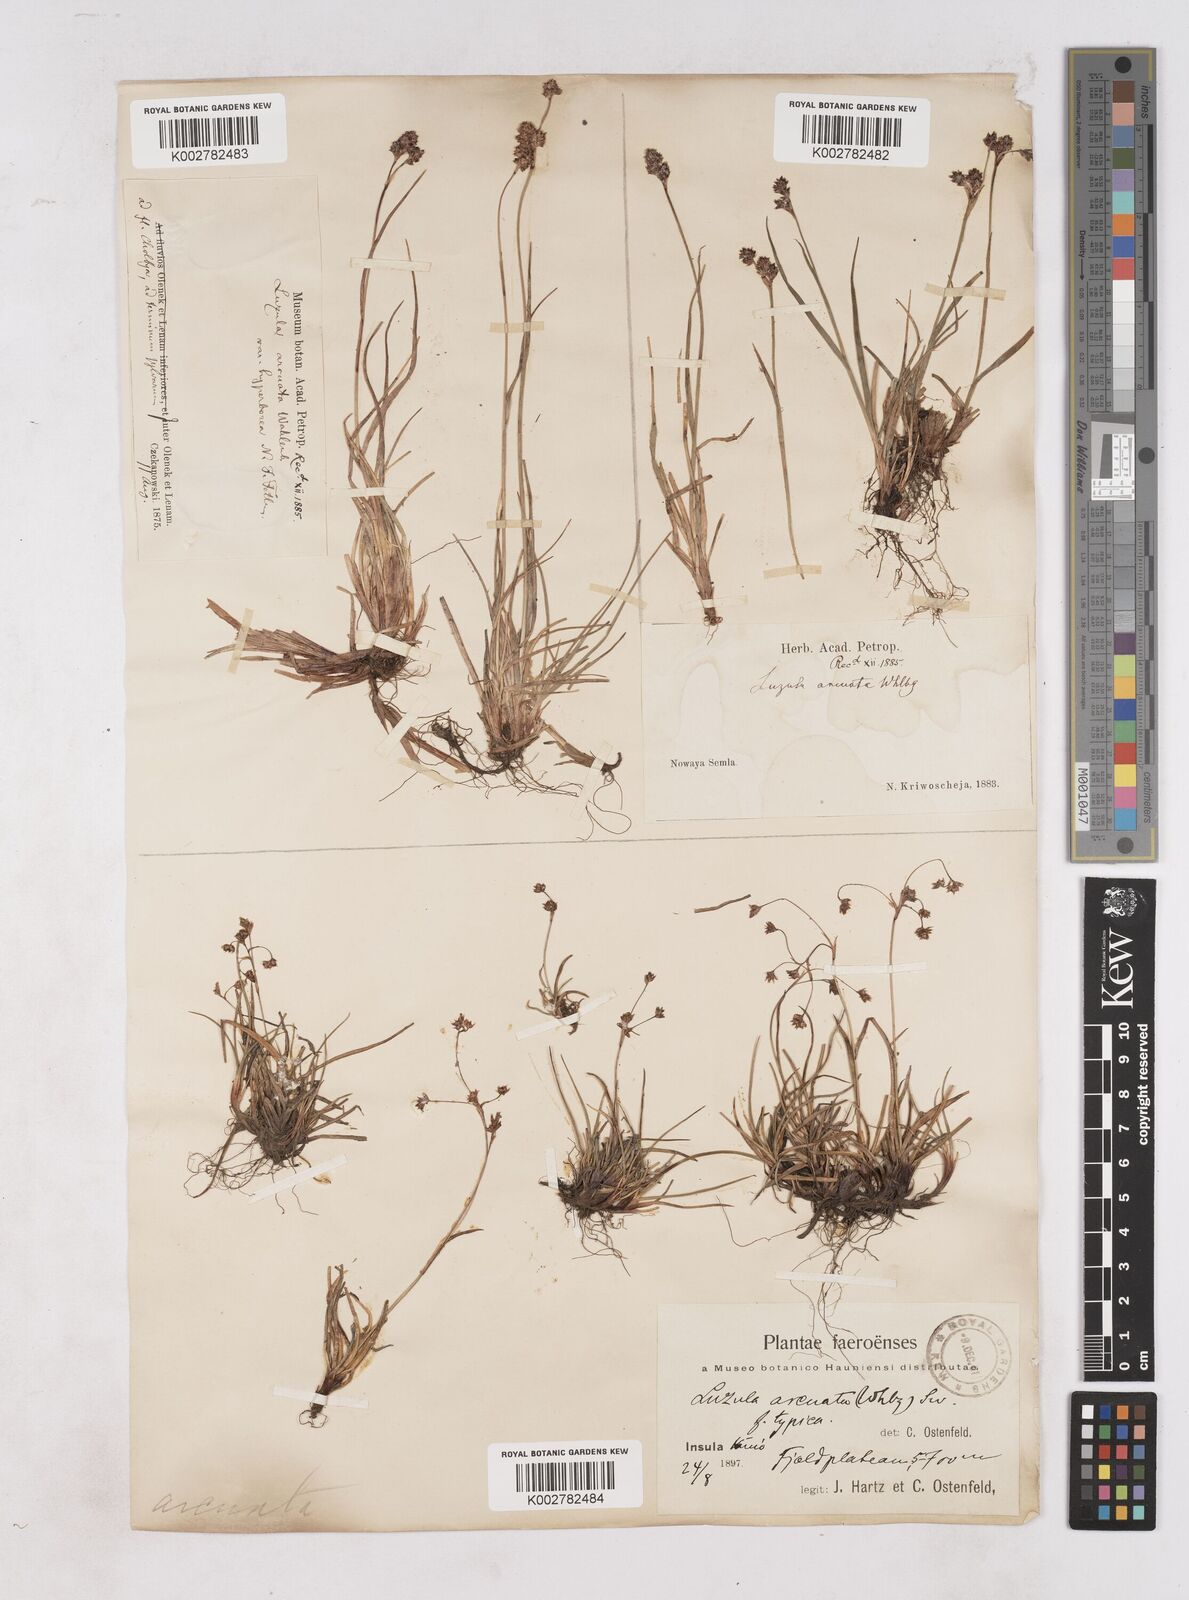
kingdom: Plantae
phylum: Tracheophyta
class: Liliopsida
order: Poales
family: Juncaceae
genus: Luzula
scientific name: Luzula arcuata
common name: Curved wood-rush
